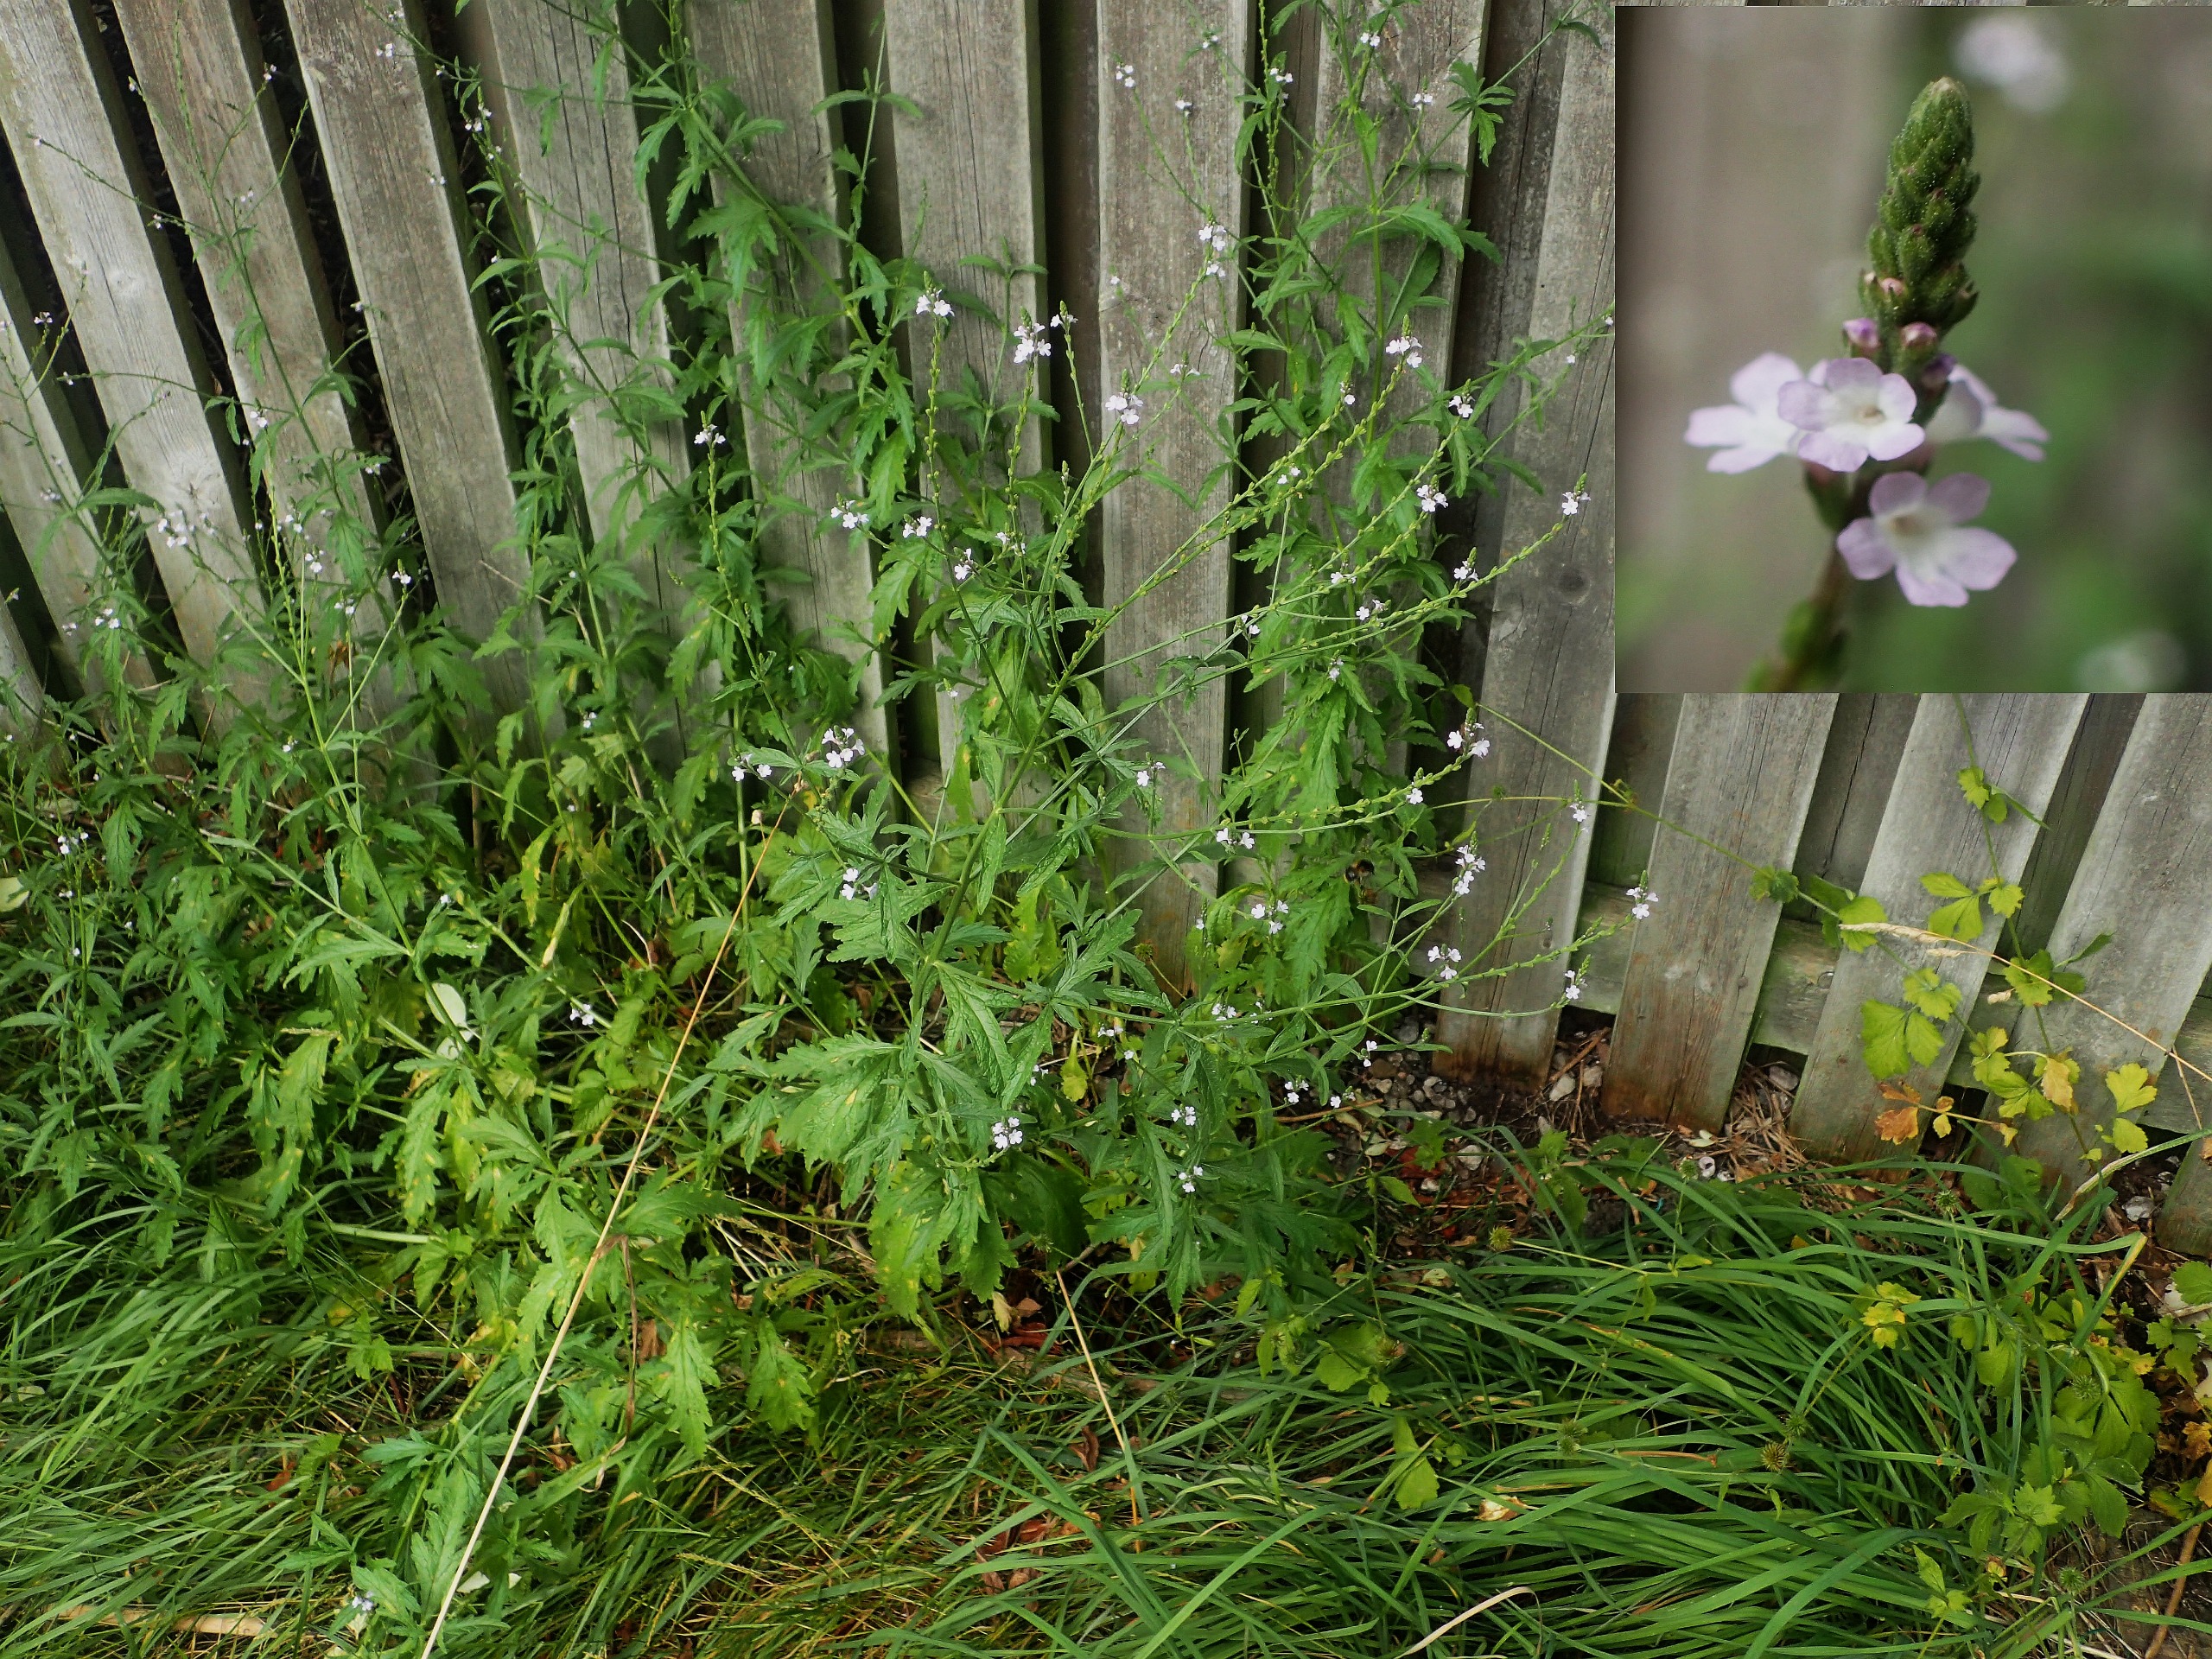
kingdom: Plantae
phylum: Tracheophyta
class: Magnoliopsida
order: Lamiales
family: Verbenaceae
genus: Verbena
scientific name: Verbena officinalis
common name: Læge-jernurt
